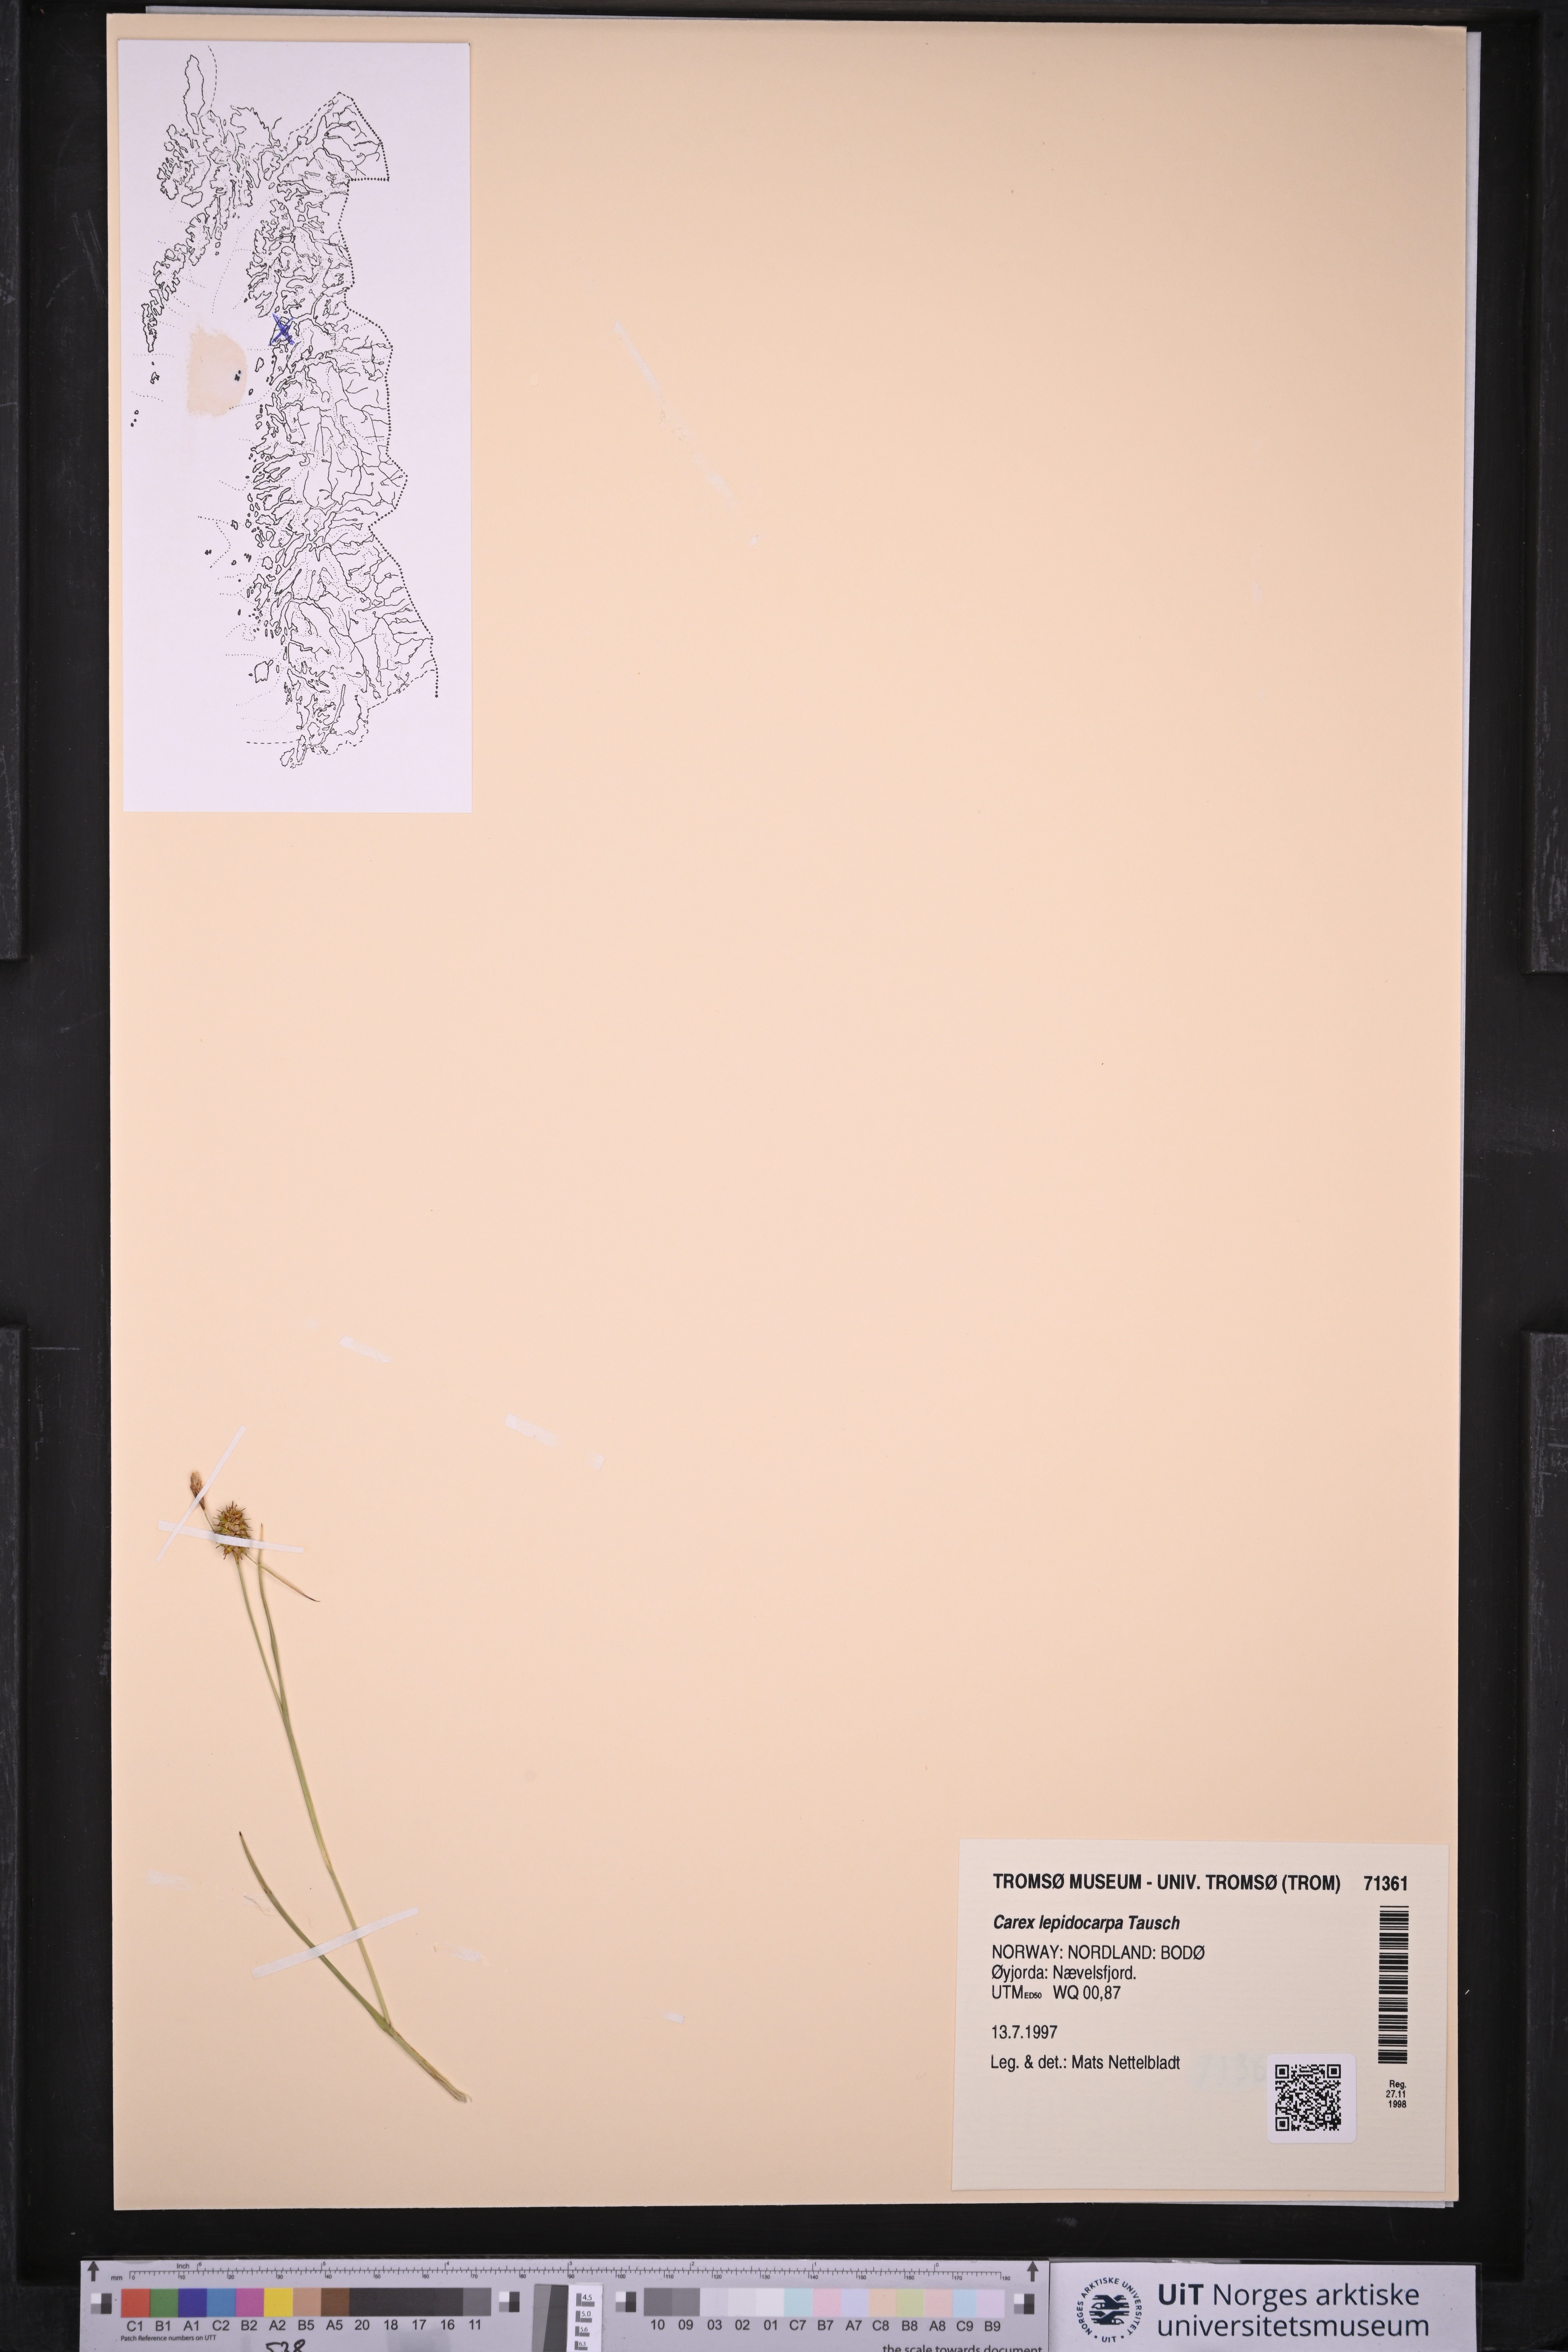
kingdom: Plantae
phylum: Tracheophyta
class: Liliopsida
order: Poales
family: Cyperaceae
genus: Carex
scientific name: Carex lepidocarpa
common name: Long-stalked yellow-sedge
